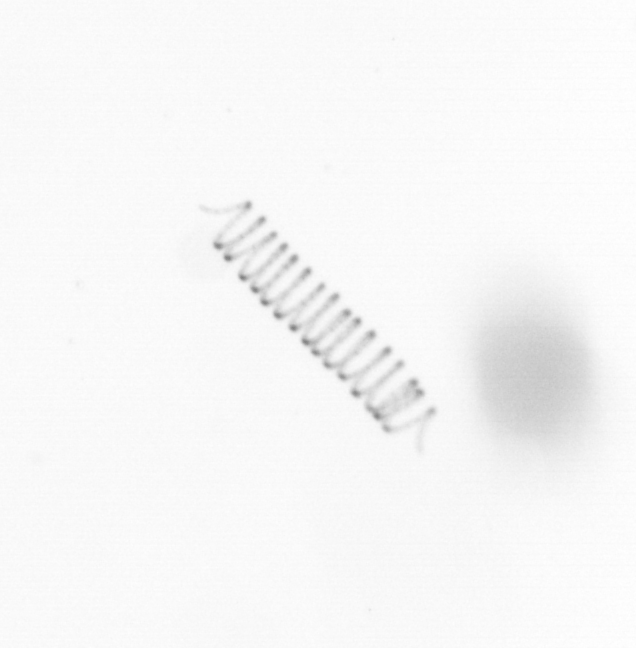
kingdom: Chromista
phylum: Ochrophyta
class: Bacillariophyceae
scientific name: Bacillariophyceae
